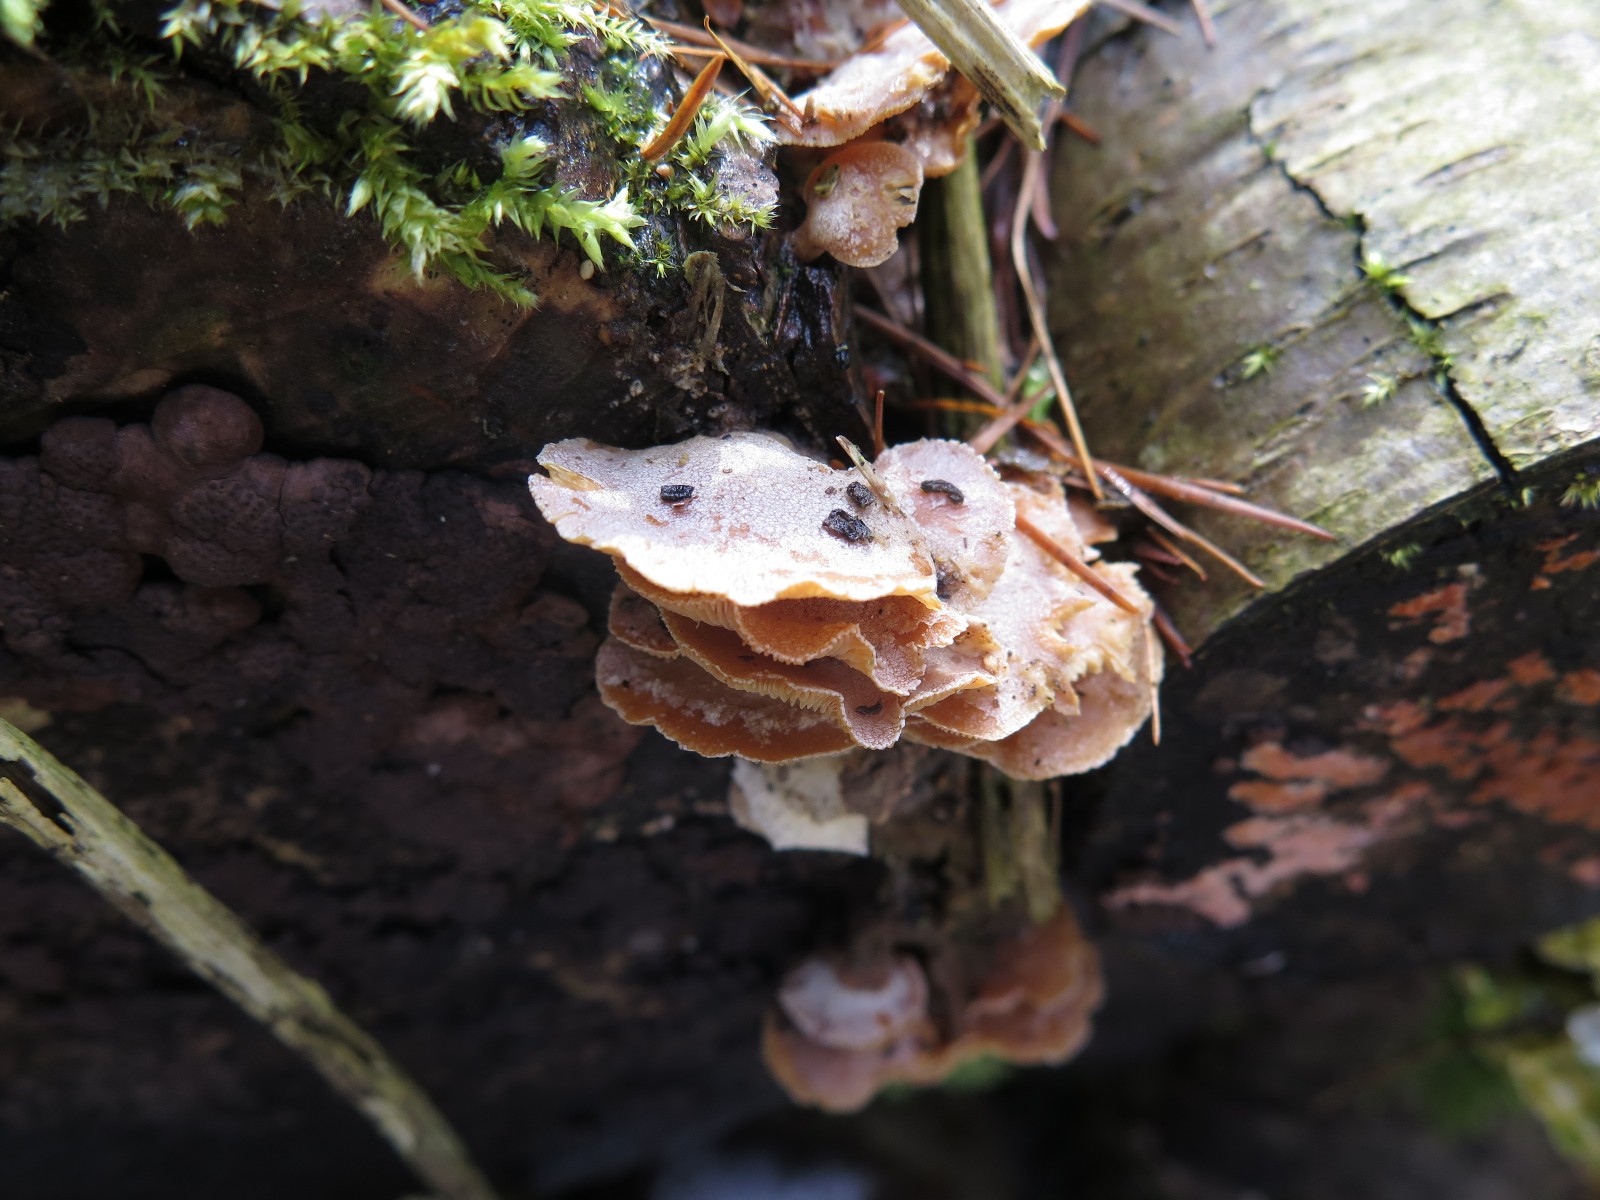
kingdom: Fungi
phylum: Basidiomycota
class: Agaricomycetes
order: Russulales
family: Stereaceae
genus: Stereum
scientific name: Stereum hirsutum
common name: håret lædersvamp
